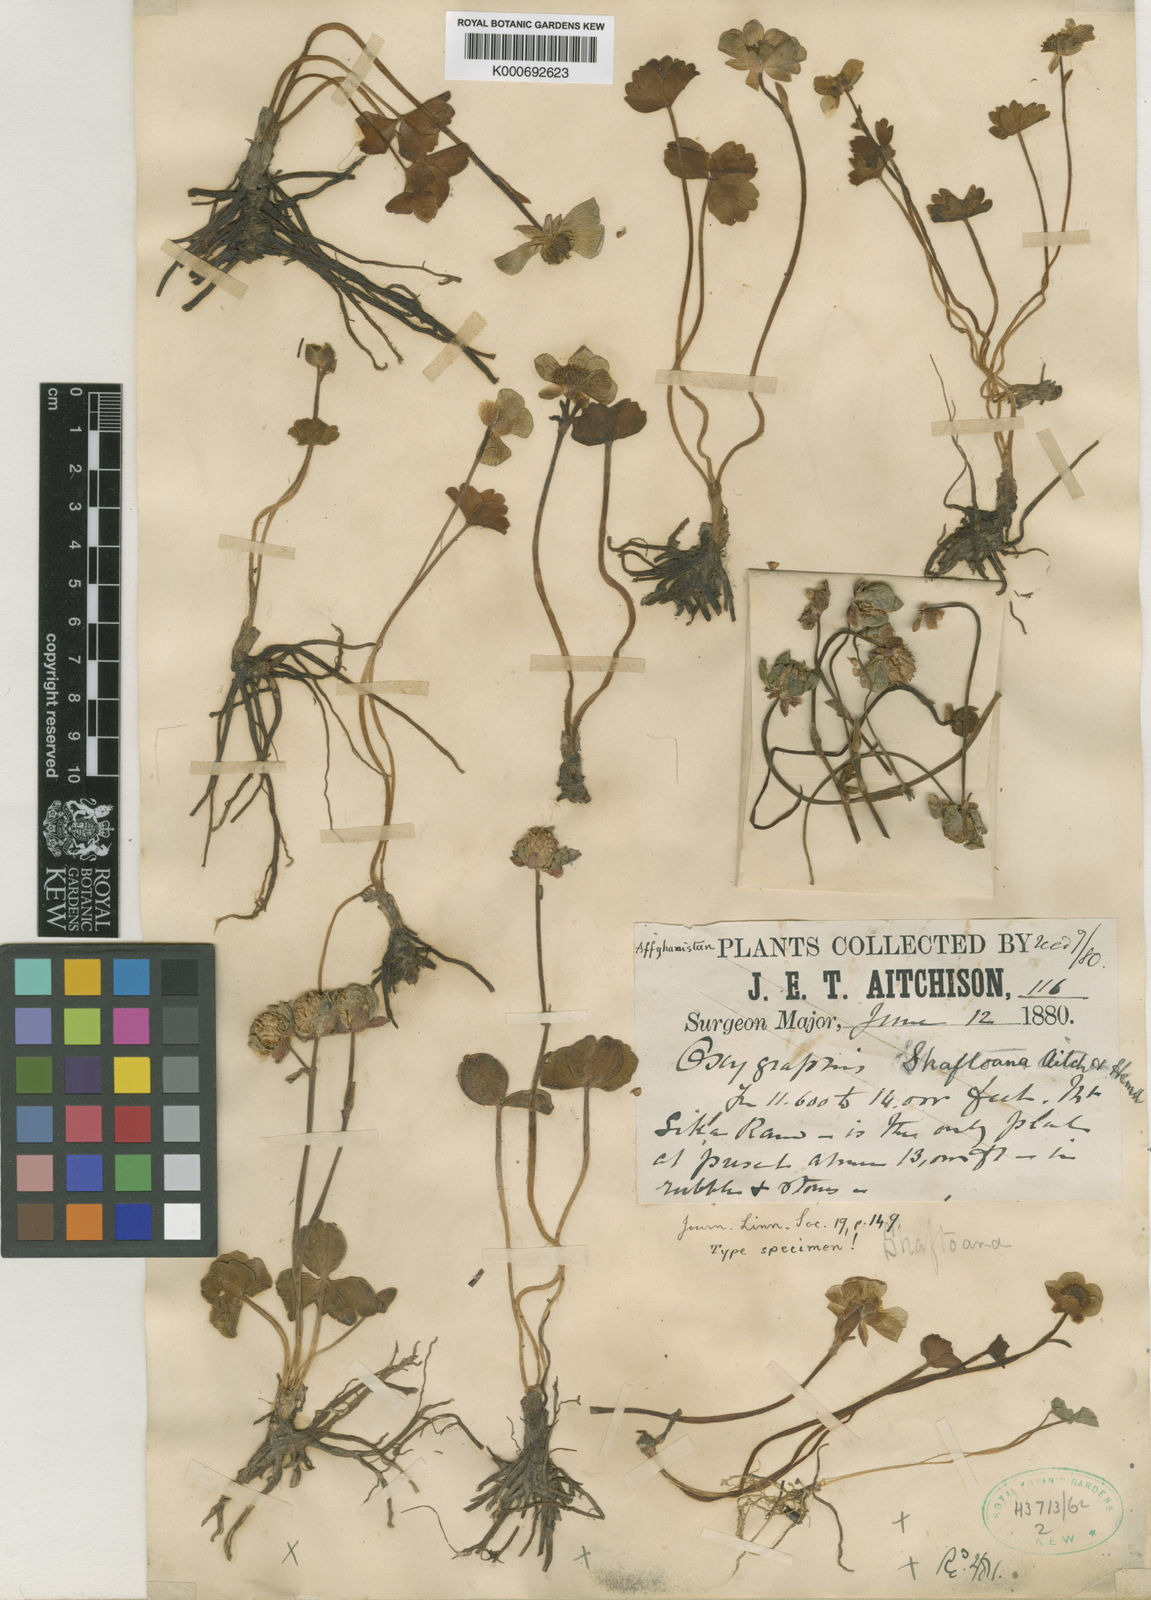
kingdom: Plantae
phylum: Tracheophyta
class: Magnoliopsida
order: Ranunculales
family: Ranunculaceae
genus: Ranunculus
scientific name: Ranunculus
